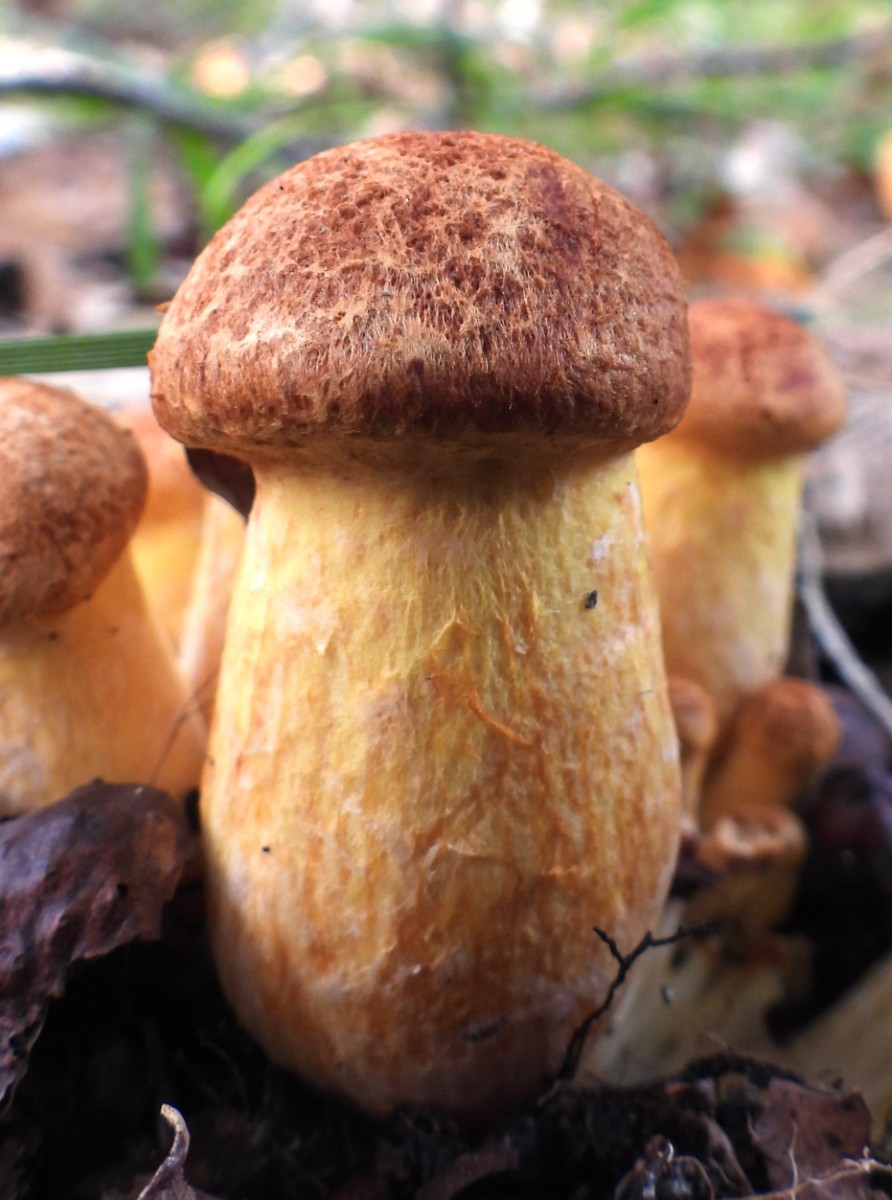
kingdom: Fungi
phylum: Basidiomycota
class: Agaricomycetes
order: Agaricales
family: Hymenogastraceae
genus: Gymnopilus
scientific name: Gymnopilus spectabilis
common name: fibret flammehat
